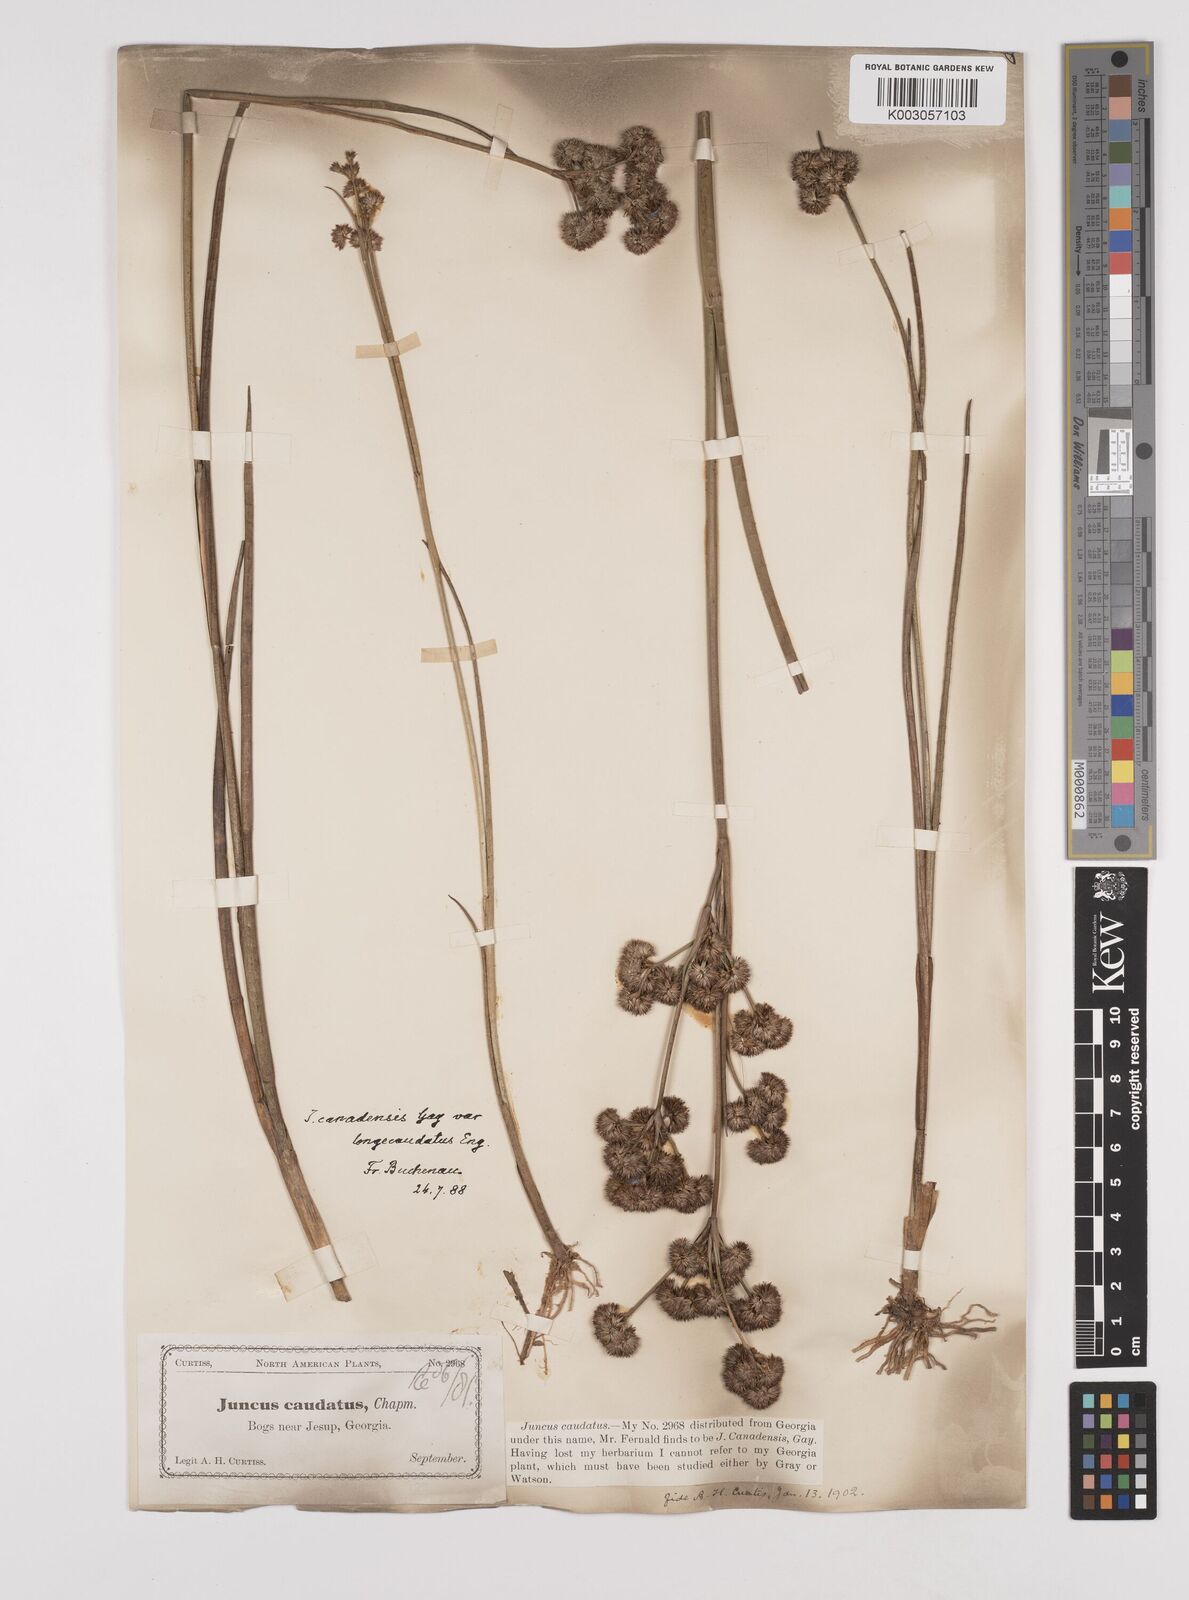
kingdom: Plantae
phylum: Tracheophyta
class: Liliopsida
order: Poales
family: Juncaceae
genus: Juncus
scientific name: Juncus canadensis
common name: Canada rush
